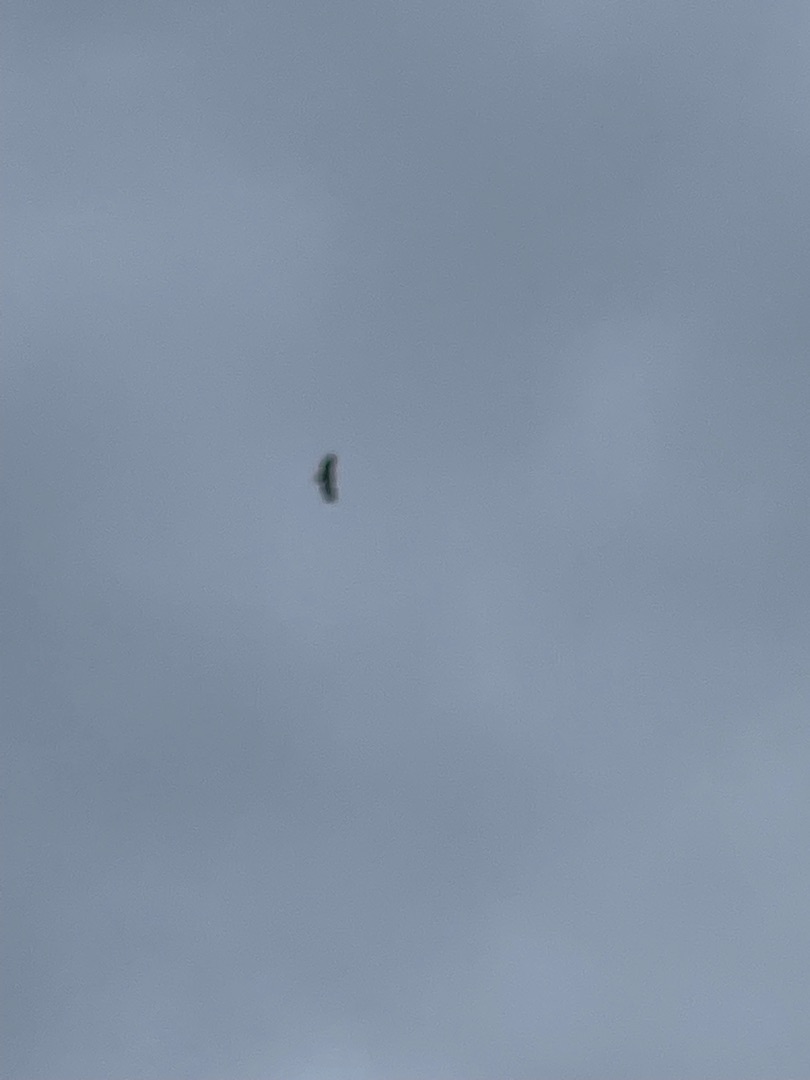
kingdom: Animalia
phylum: Chordata
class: Aves
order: Accipitriformes
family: Accipitridae
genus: Haliaeetus
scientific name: Haliaeetus albicilla
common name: Havørn
